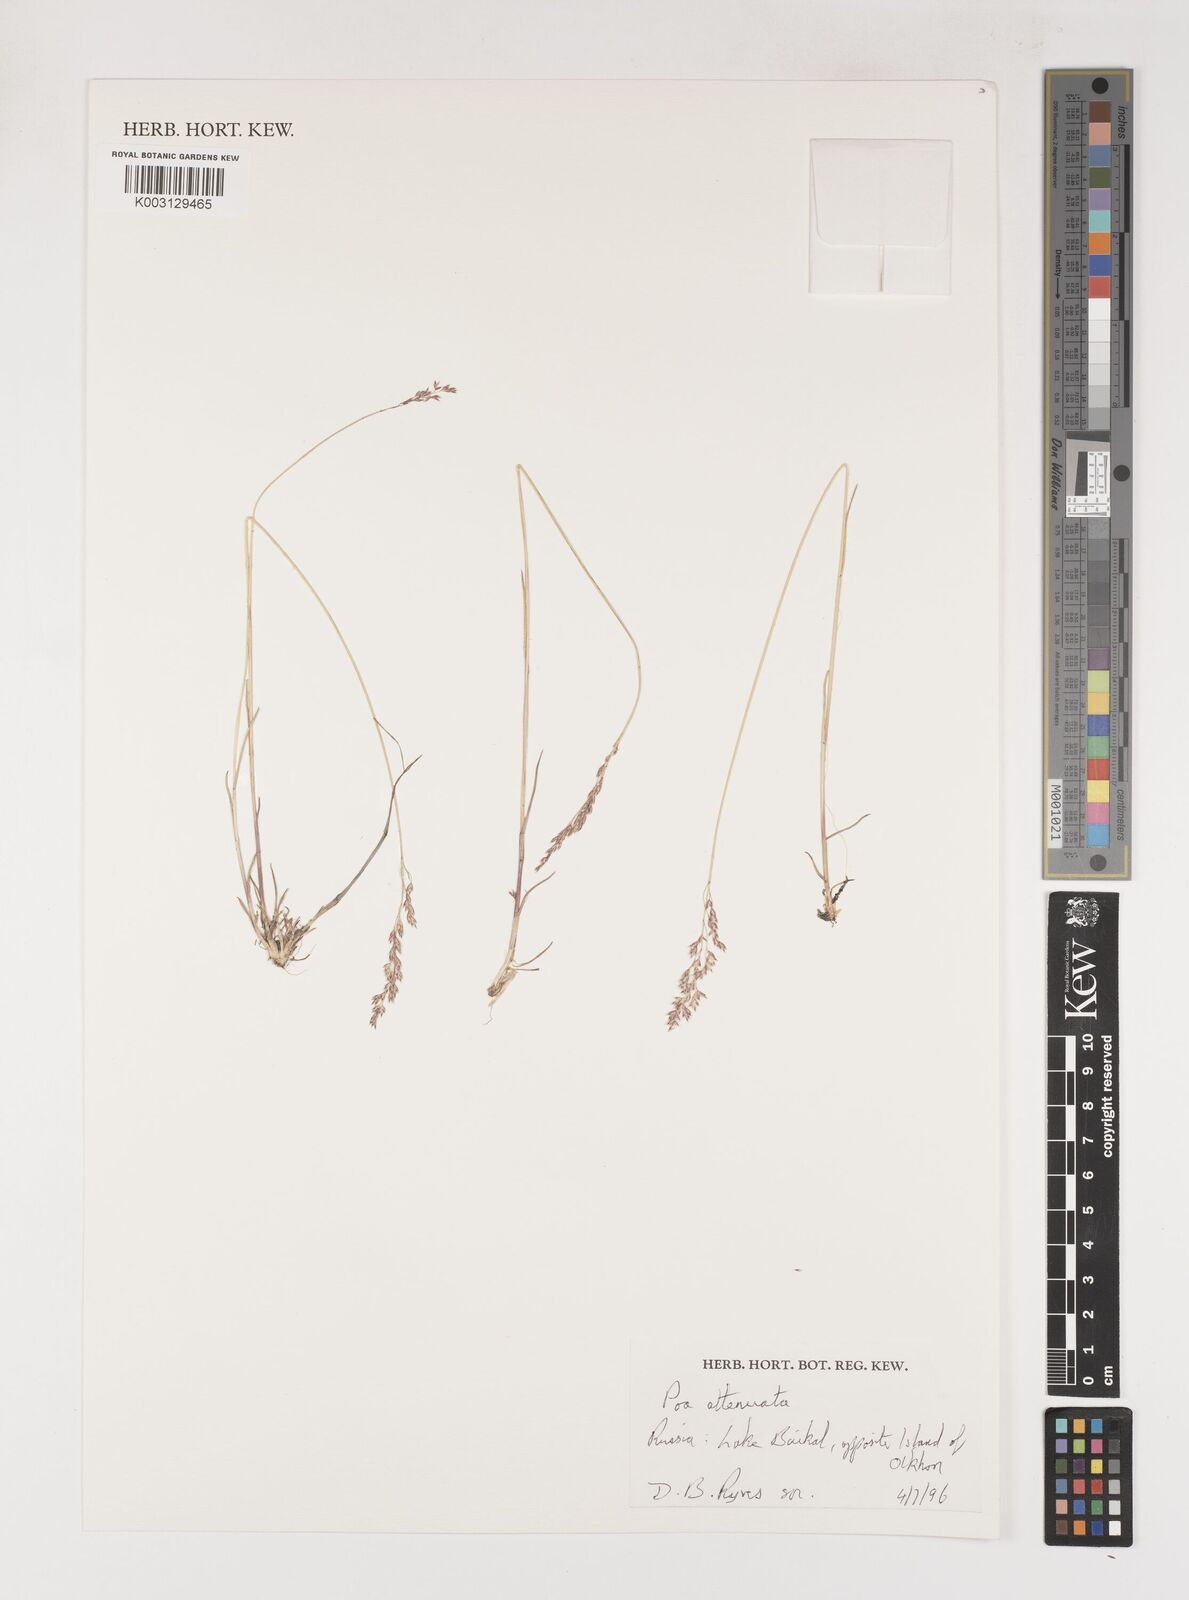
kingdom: Plantae
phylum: Tracheophyta
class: Liliopsida
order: Poales
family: Poaceae
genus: Poa
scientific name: Poa attenuata
